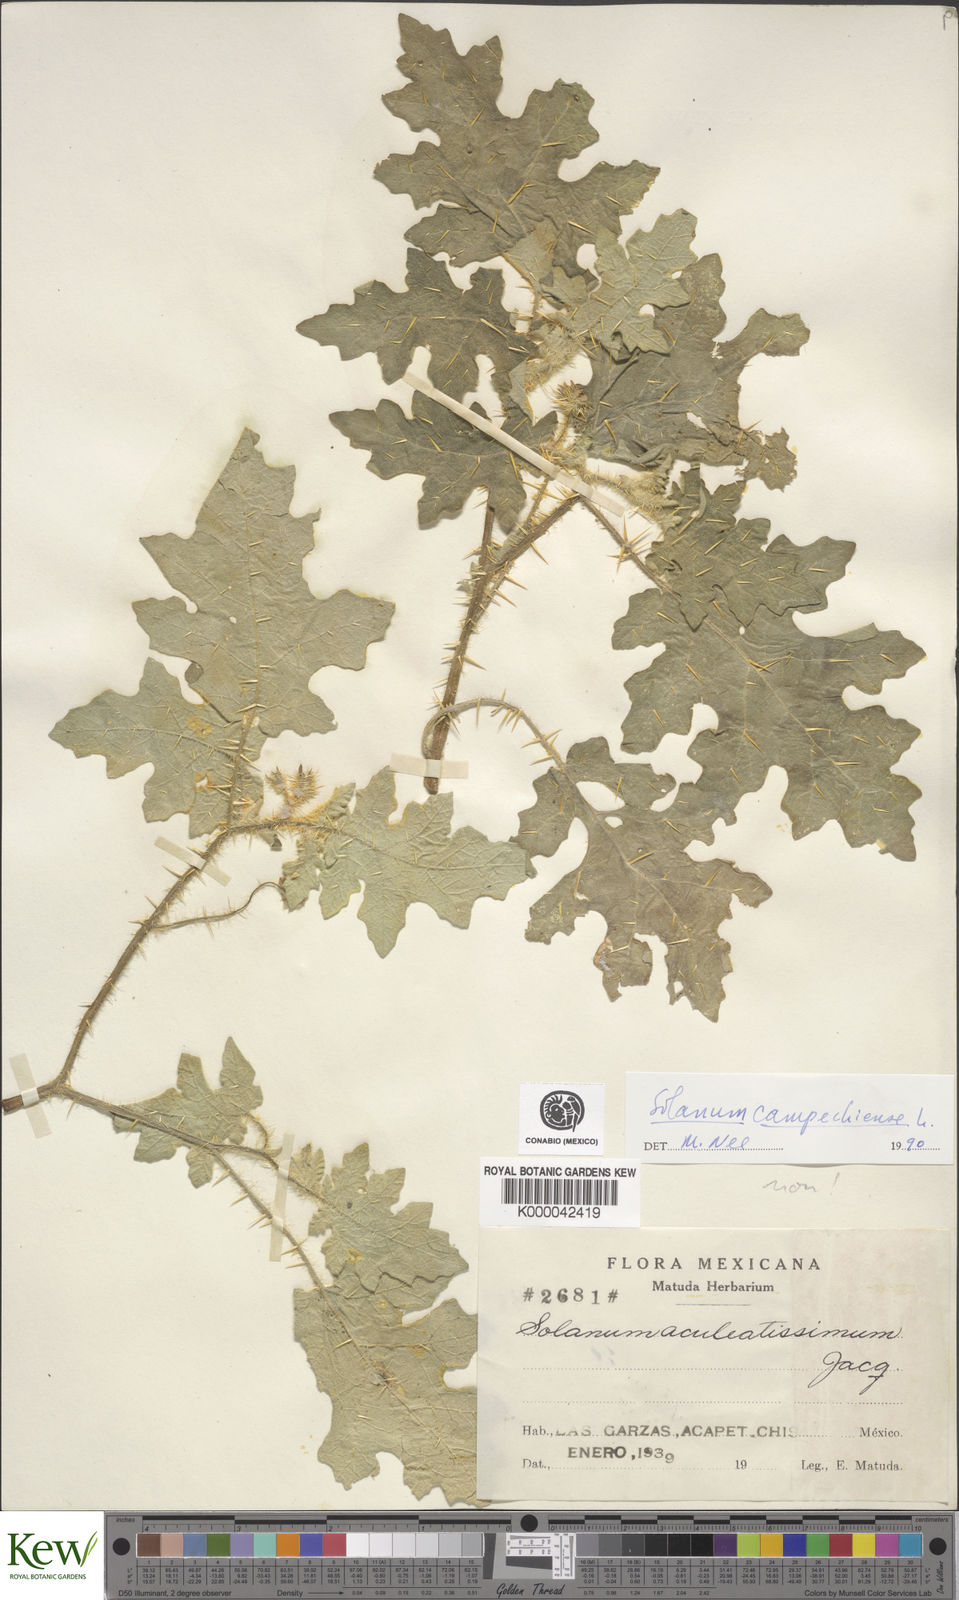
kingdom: Plantae
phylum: Tracheophyta
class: Magnoliopsida
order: Solanales
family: Solanaceae
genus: Solanum
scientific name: Solanum campechiense
